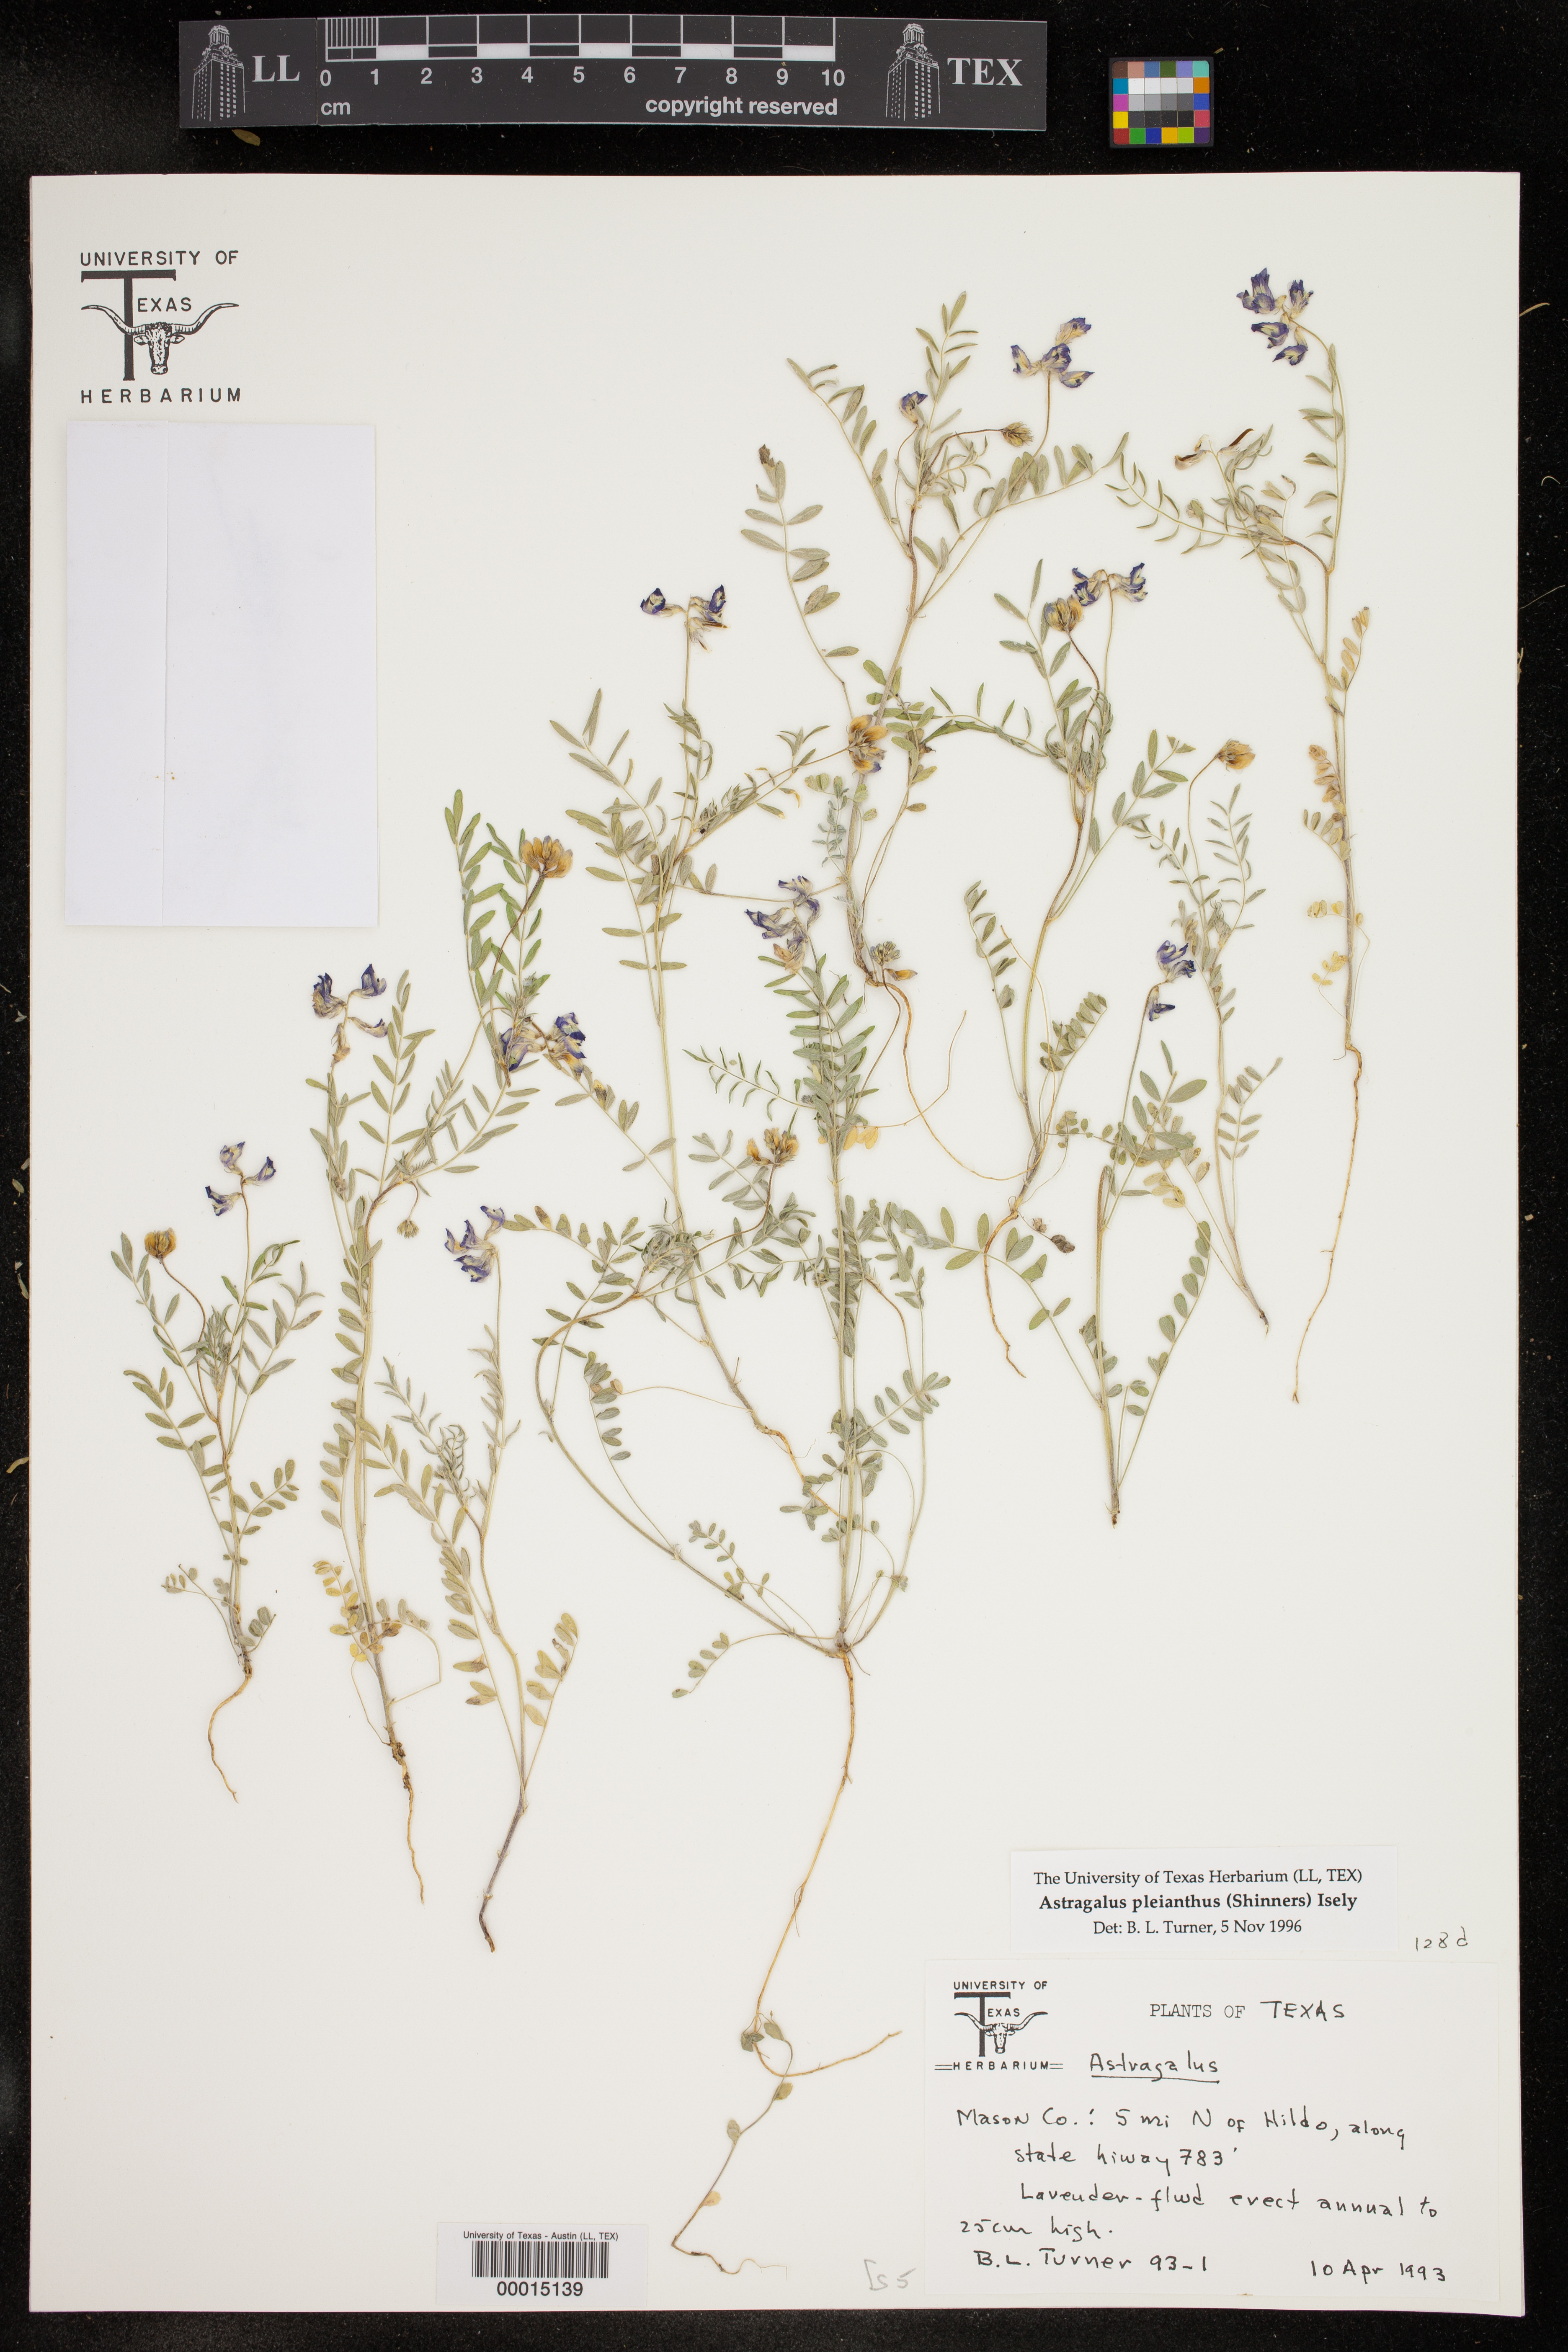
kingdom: Plantae
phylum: Tracheophyta
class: Magnoliopsida
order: Fabales
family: Fabaceae
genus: Astragalus
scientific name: Astragalus pleianthus
